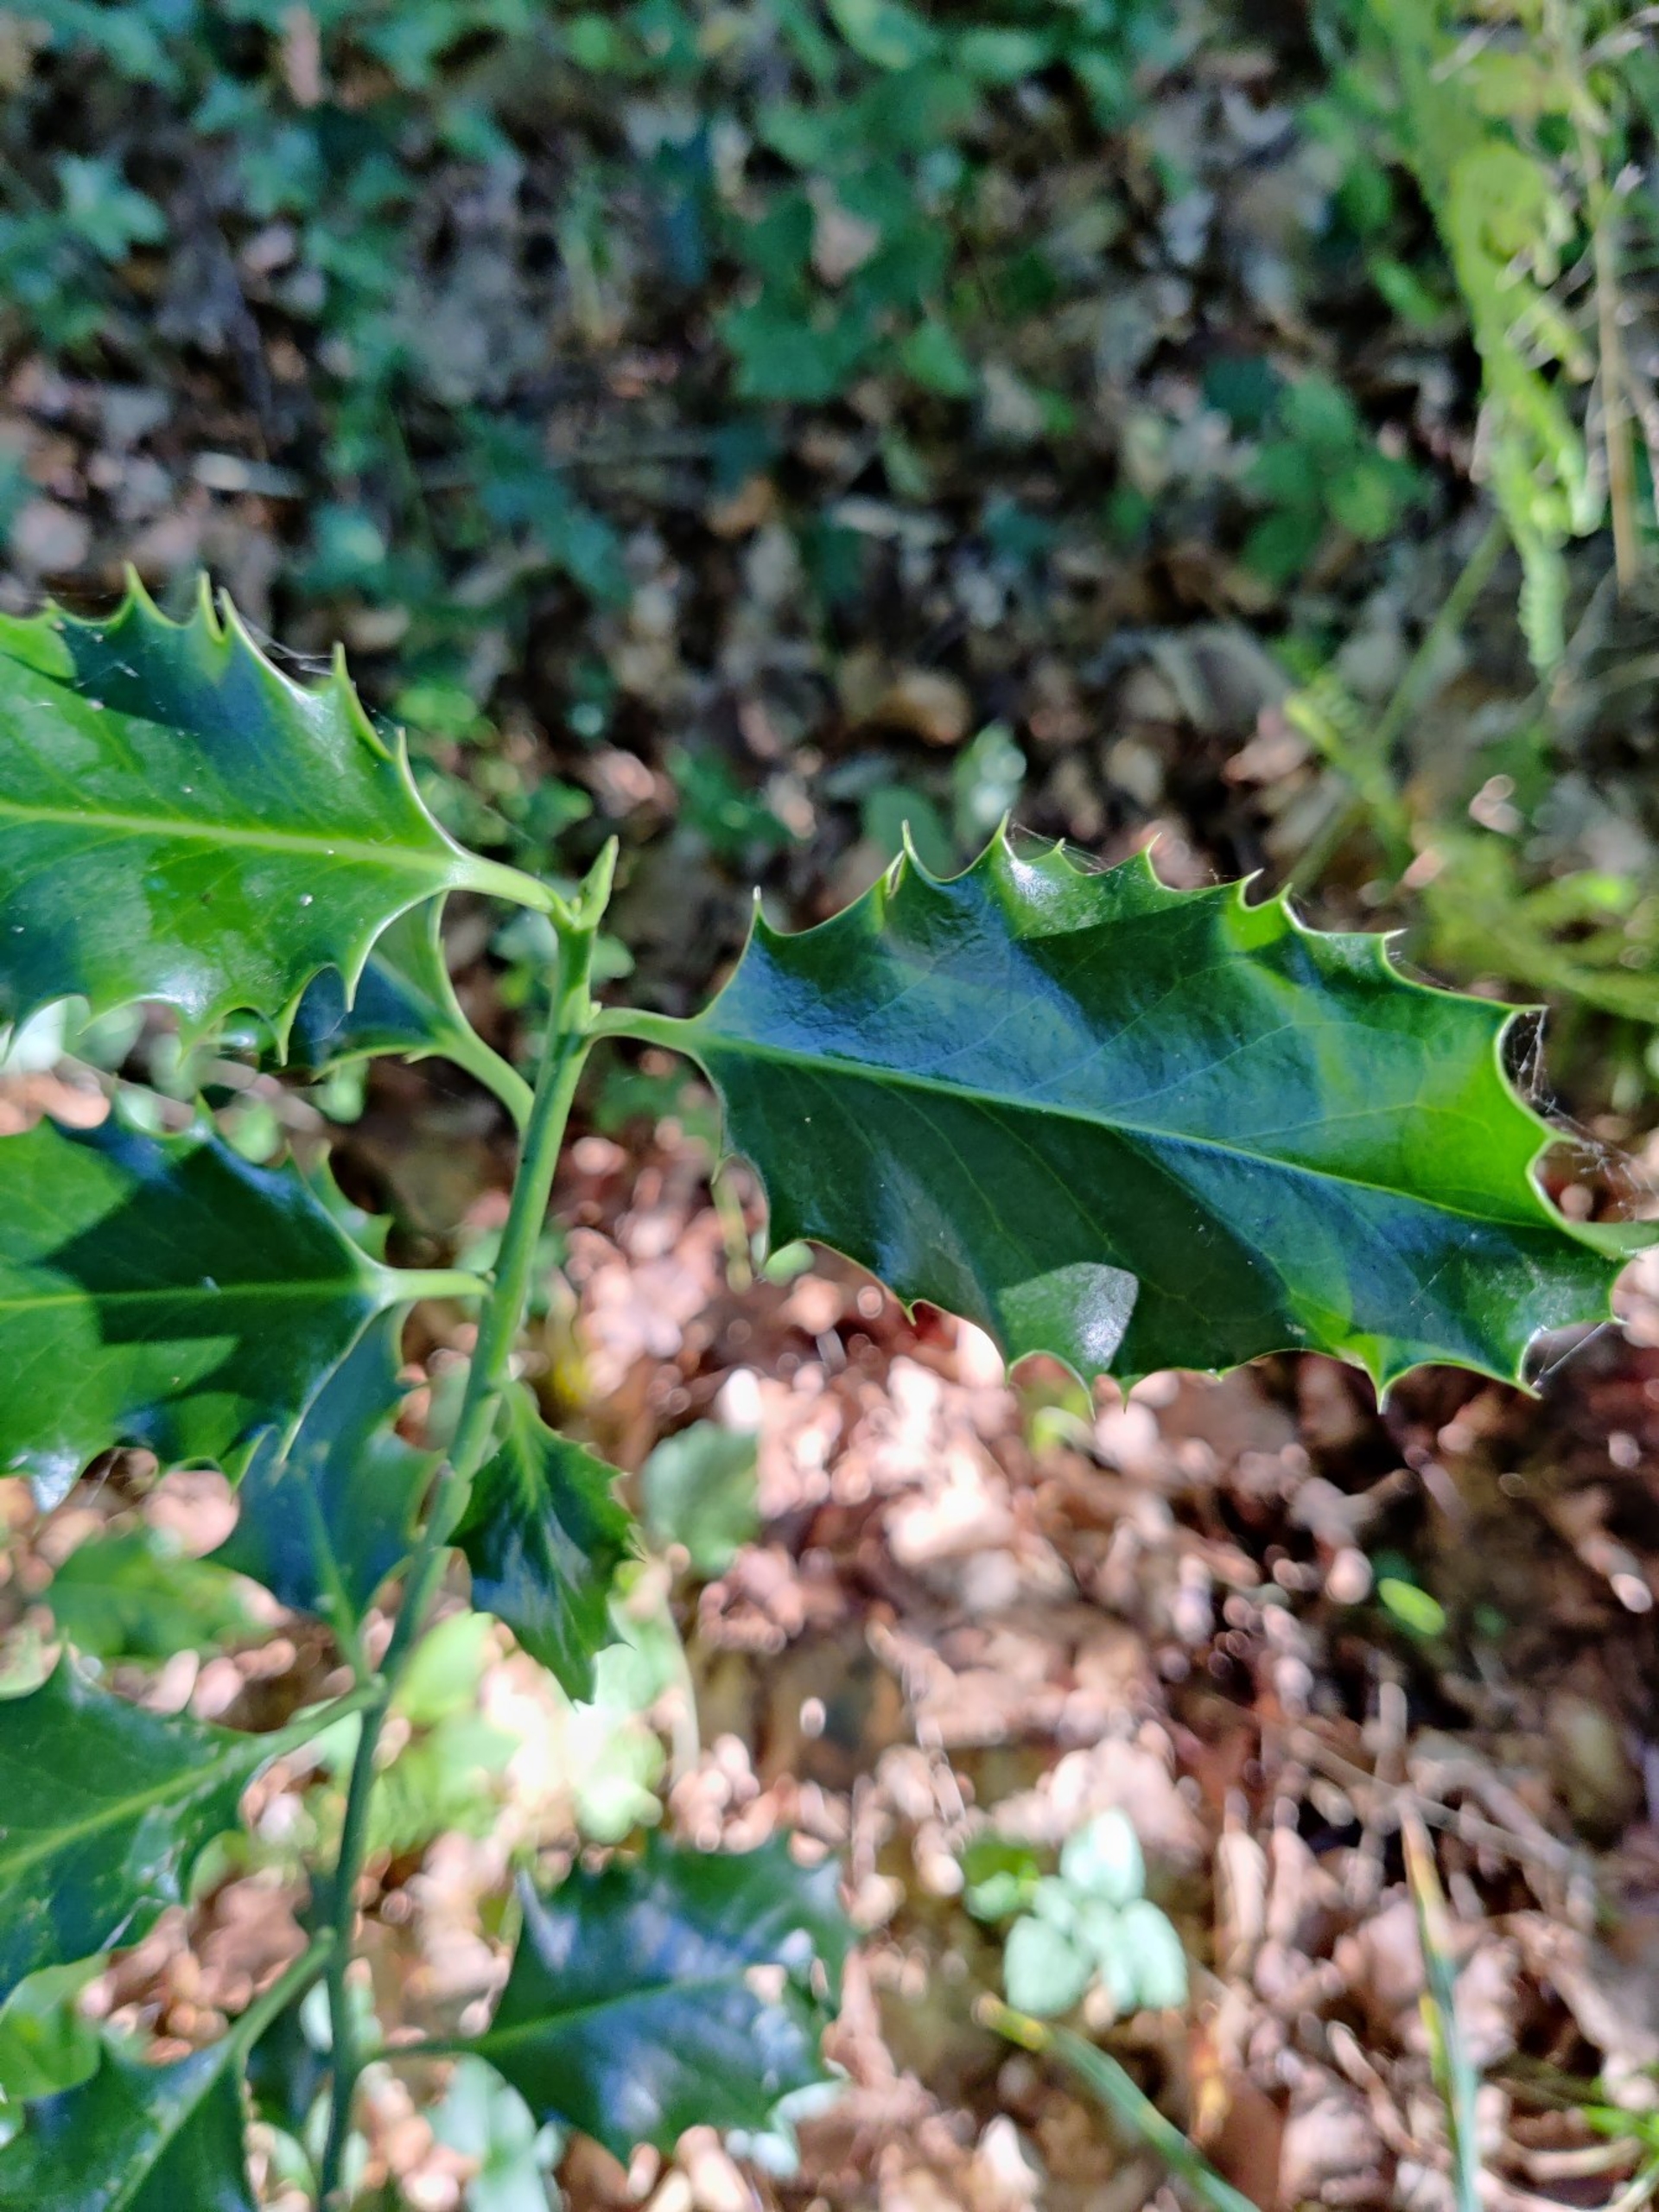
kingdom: Plantae
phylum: Tracheophyta
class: Magnoliopsida
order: Aquifoliales
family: Aquifoliaceae
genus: Ilex
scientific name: Ilex aquifolium
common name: Kristtorn
